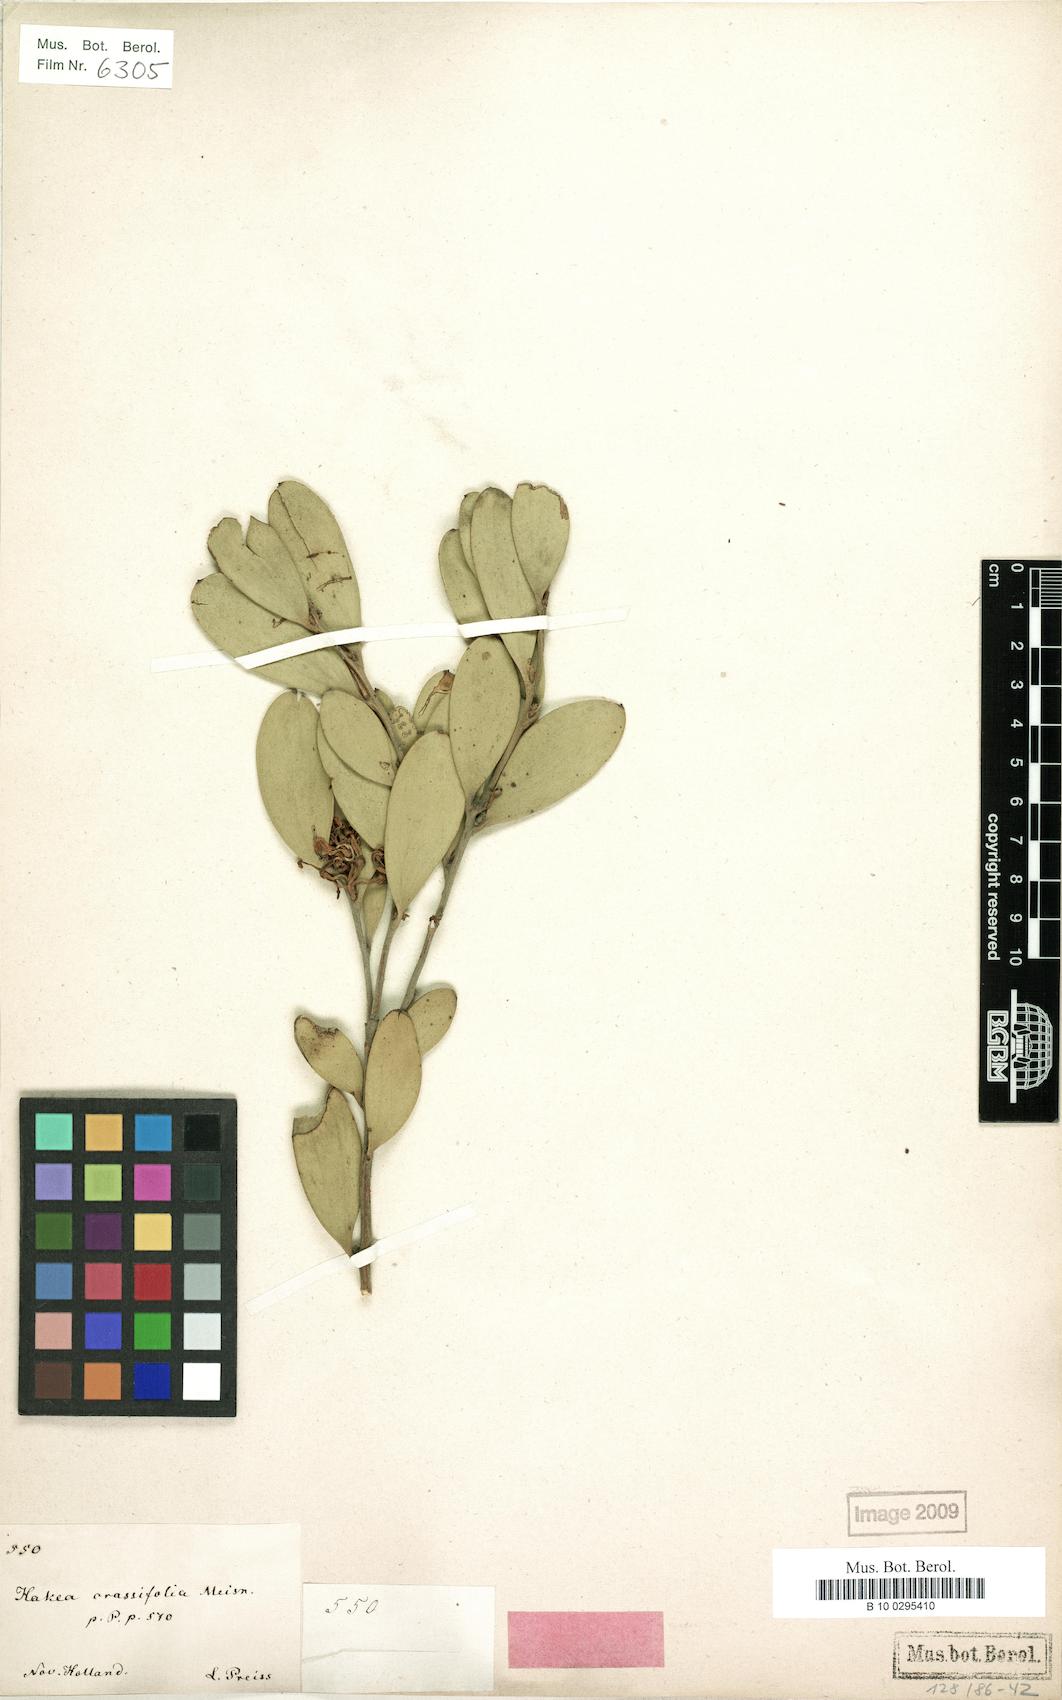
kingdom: Plantae
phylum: Tracheophyta
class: Magnoliopsida
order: Proteales
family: Proteaceae
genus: Hakea
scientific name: Hakea pandanicarpa
